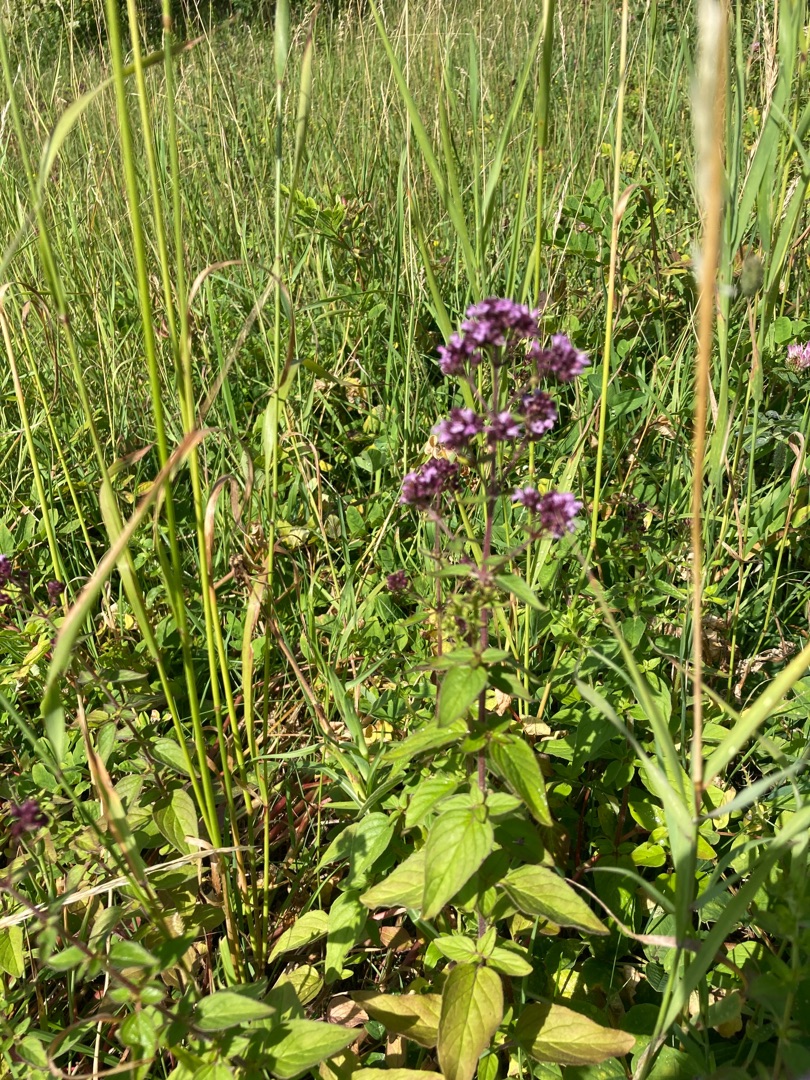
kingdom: Plantae
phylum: Tracheophyta
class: Magnoliopsida
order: Lamiales
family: Lamiaceae
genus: Origanum
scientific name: Origanum vulgare
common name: Merian
